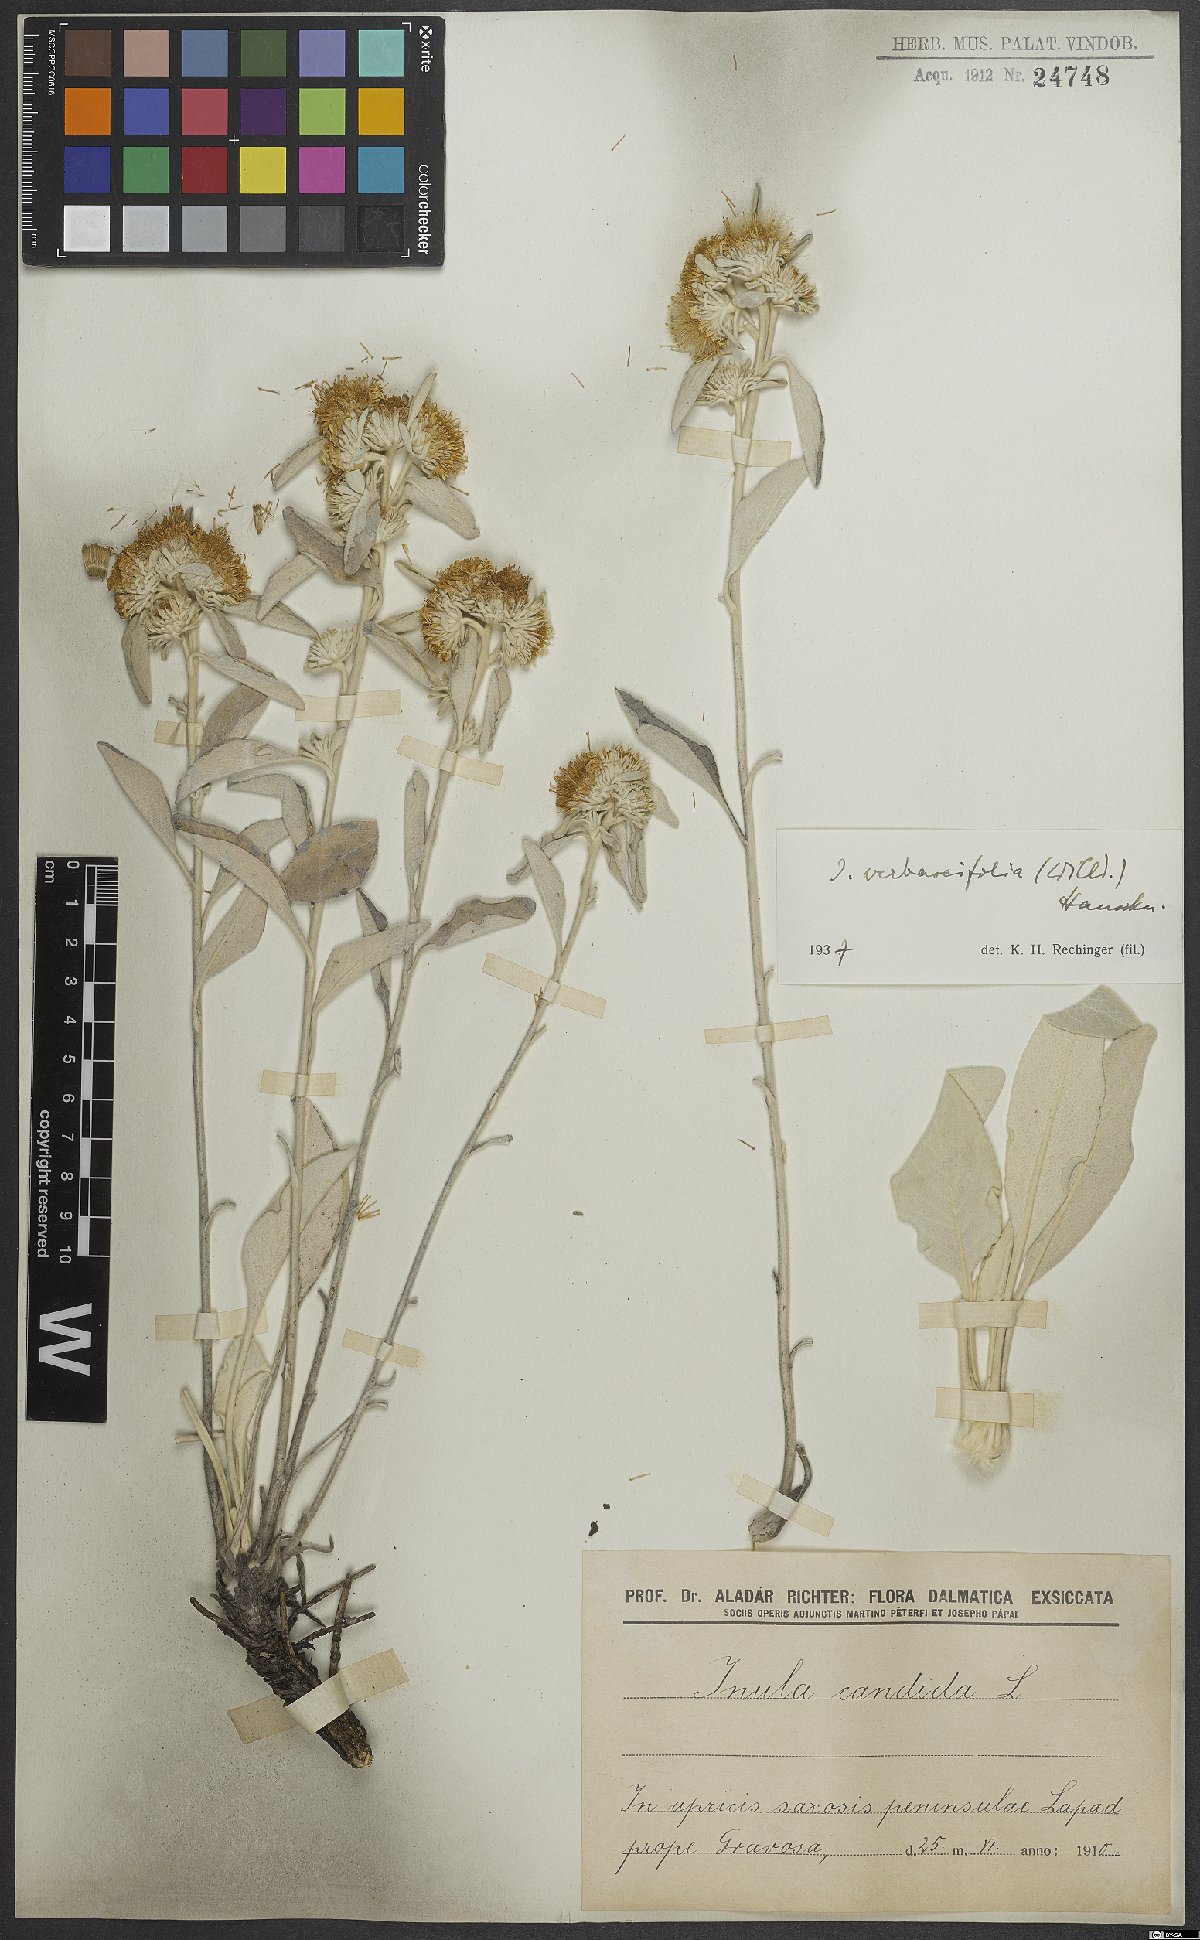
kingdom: Plantae
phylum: Tracheophyta
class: Magnoliopsida
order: Asterales
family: Asteraceae
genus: Pentanema
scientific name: Pentanema verbascifolium
